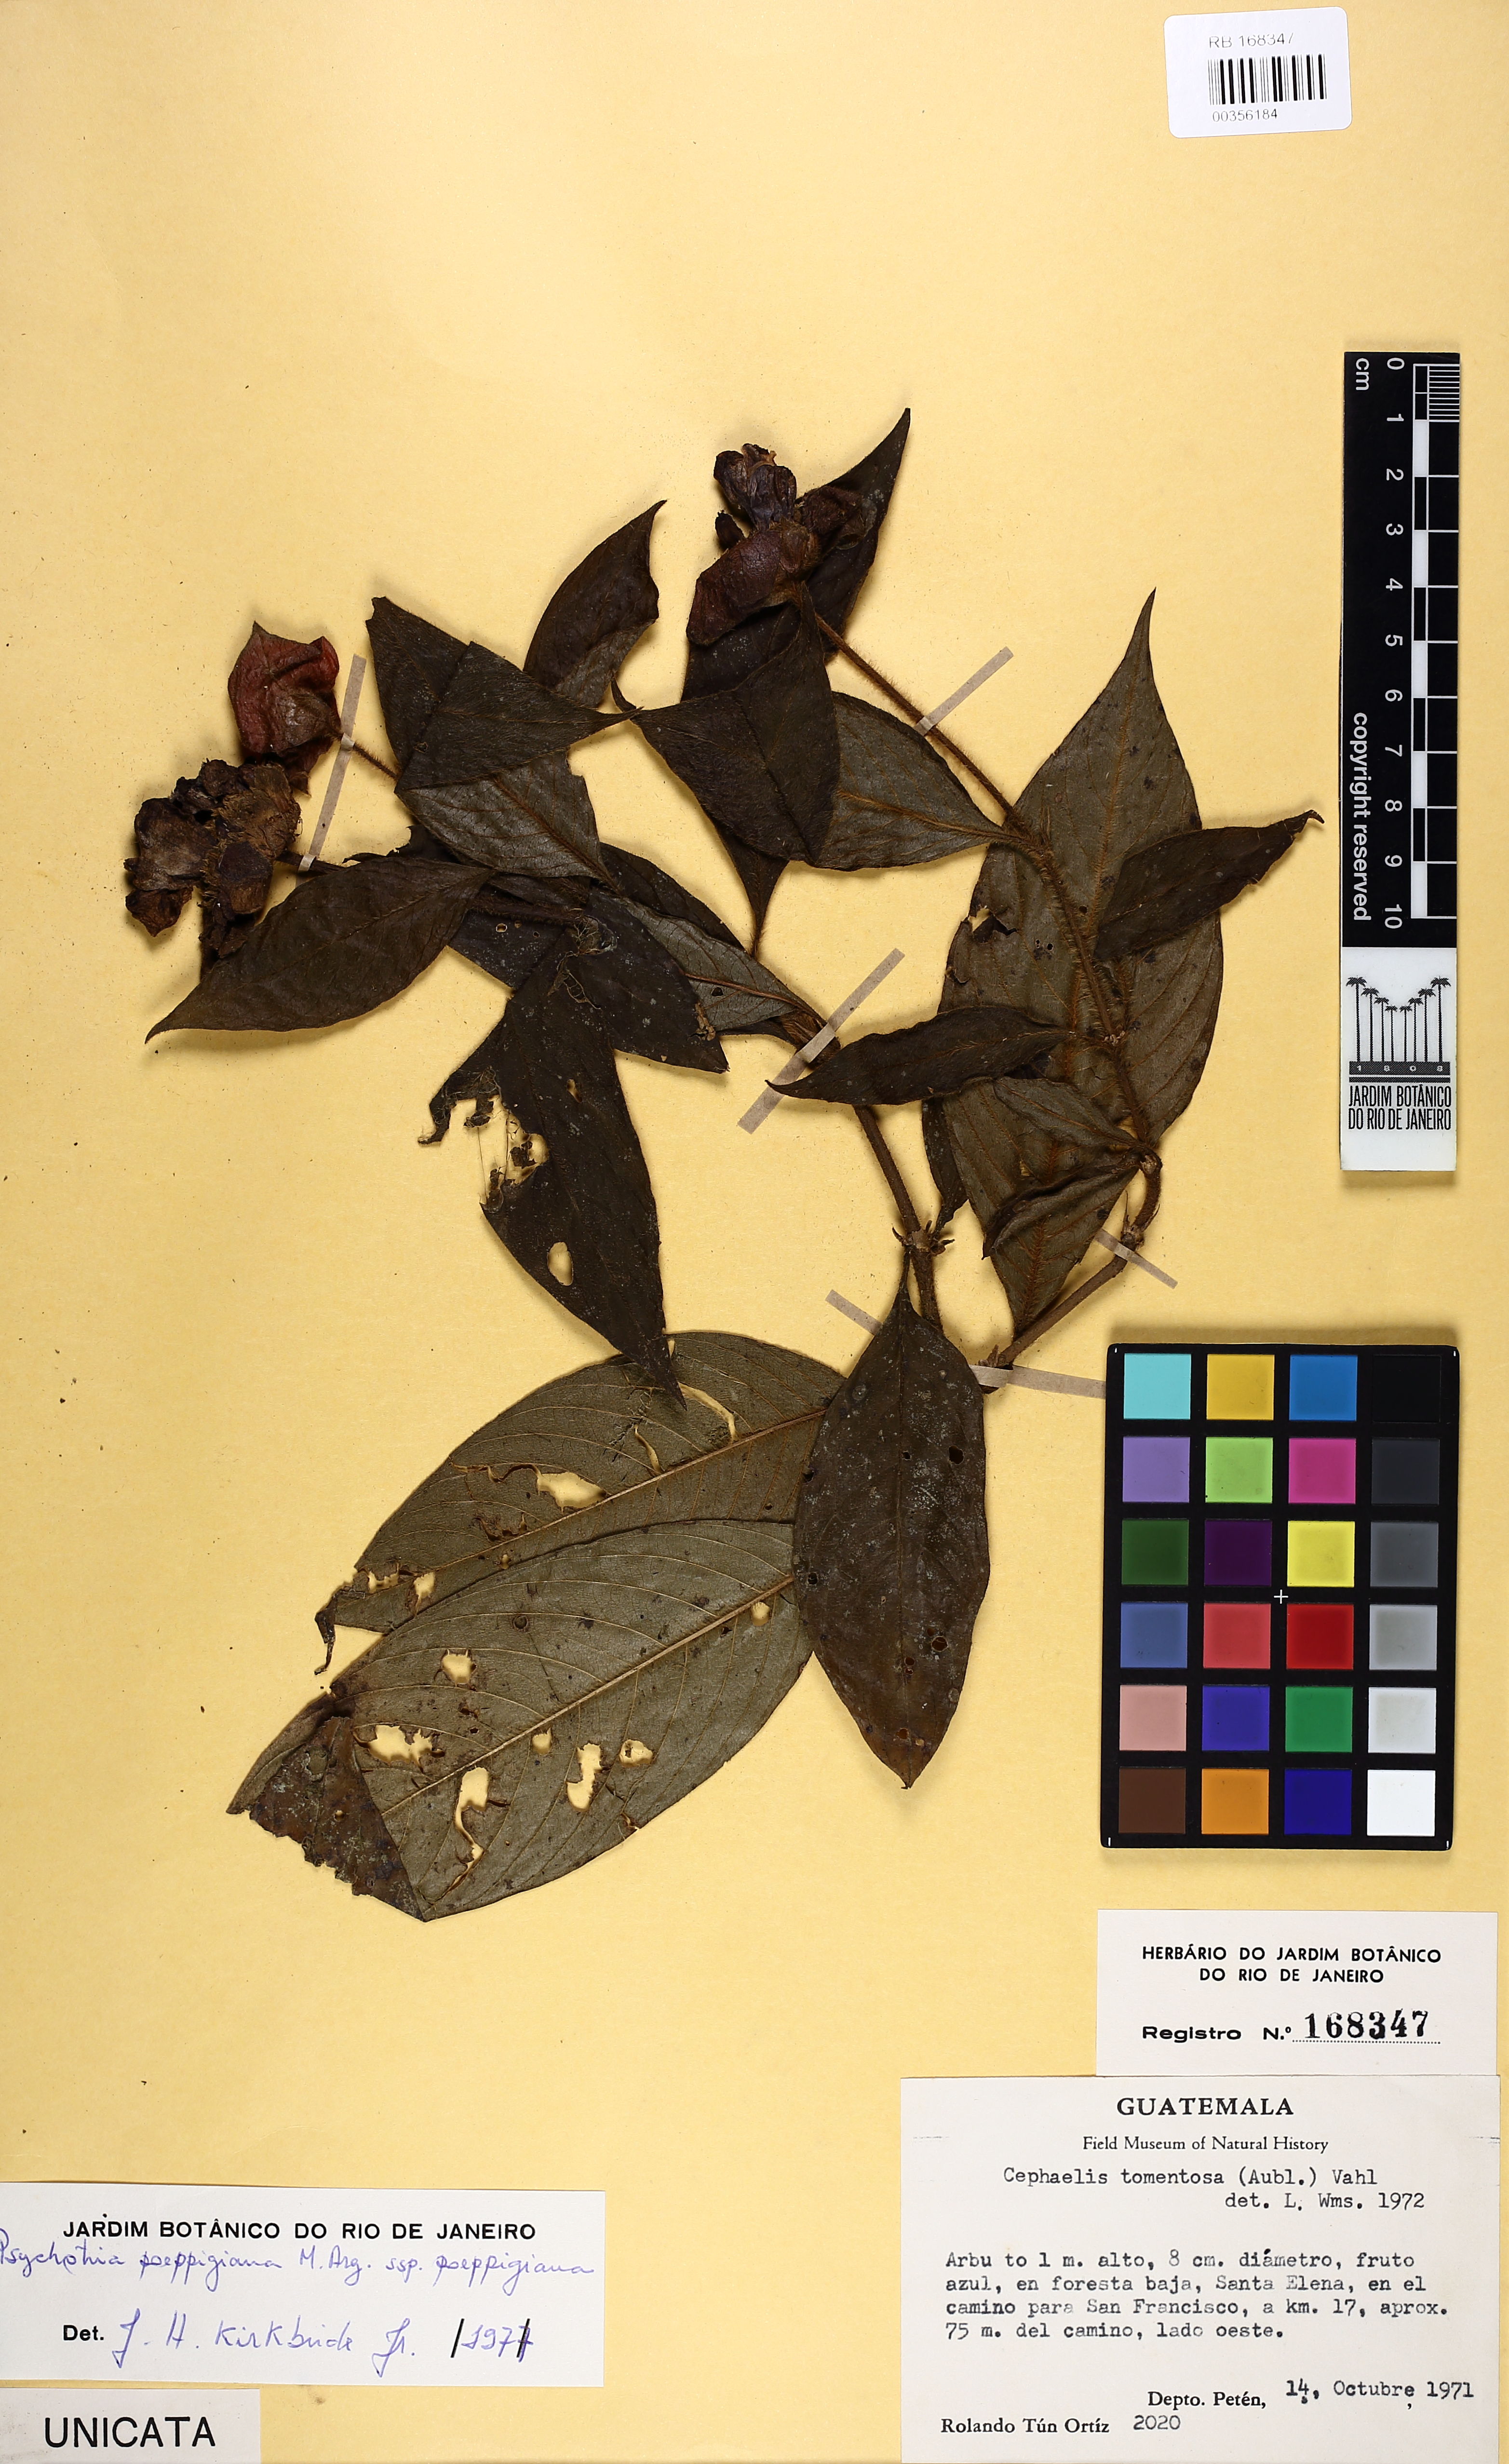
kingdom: Plantae
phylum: Tracheophyta
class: Magnoliopsida
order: Gentianales
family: Rubiaceae
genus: Palicourea
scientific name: Palicourea tomentosa
